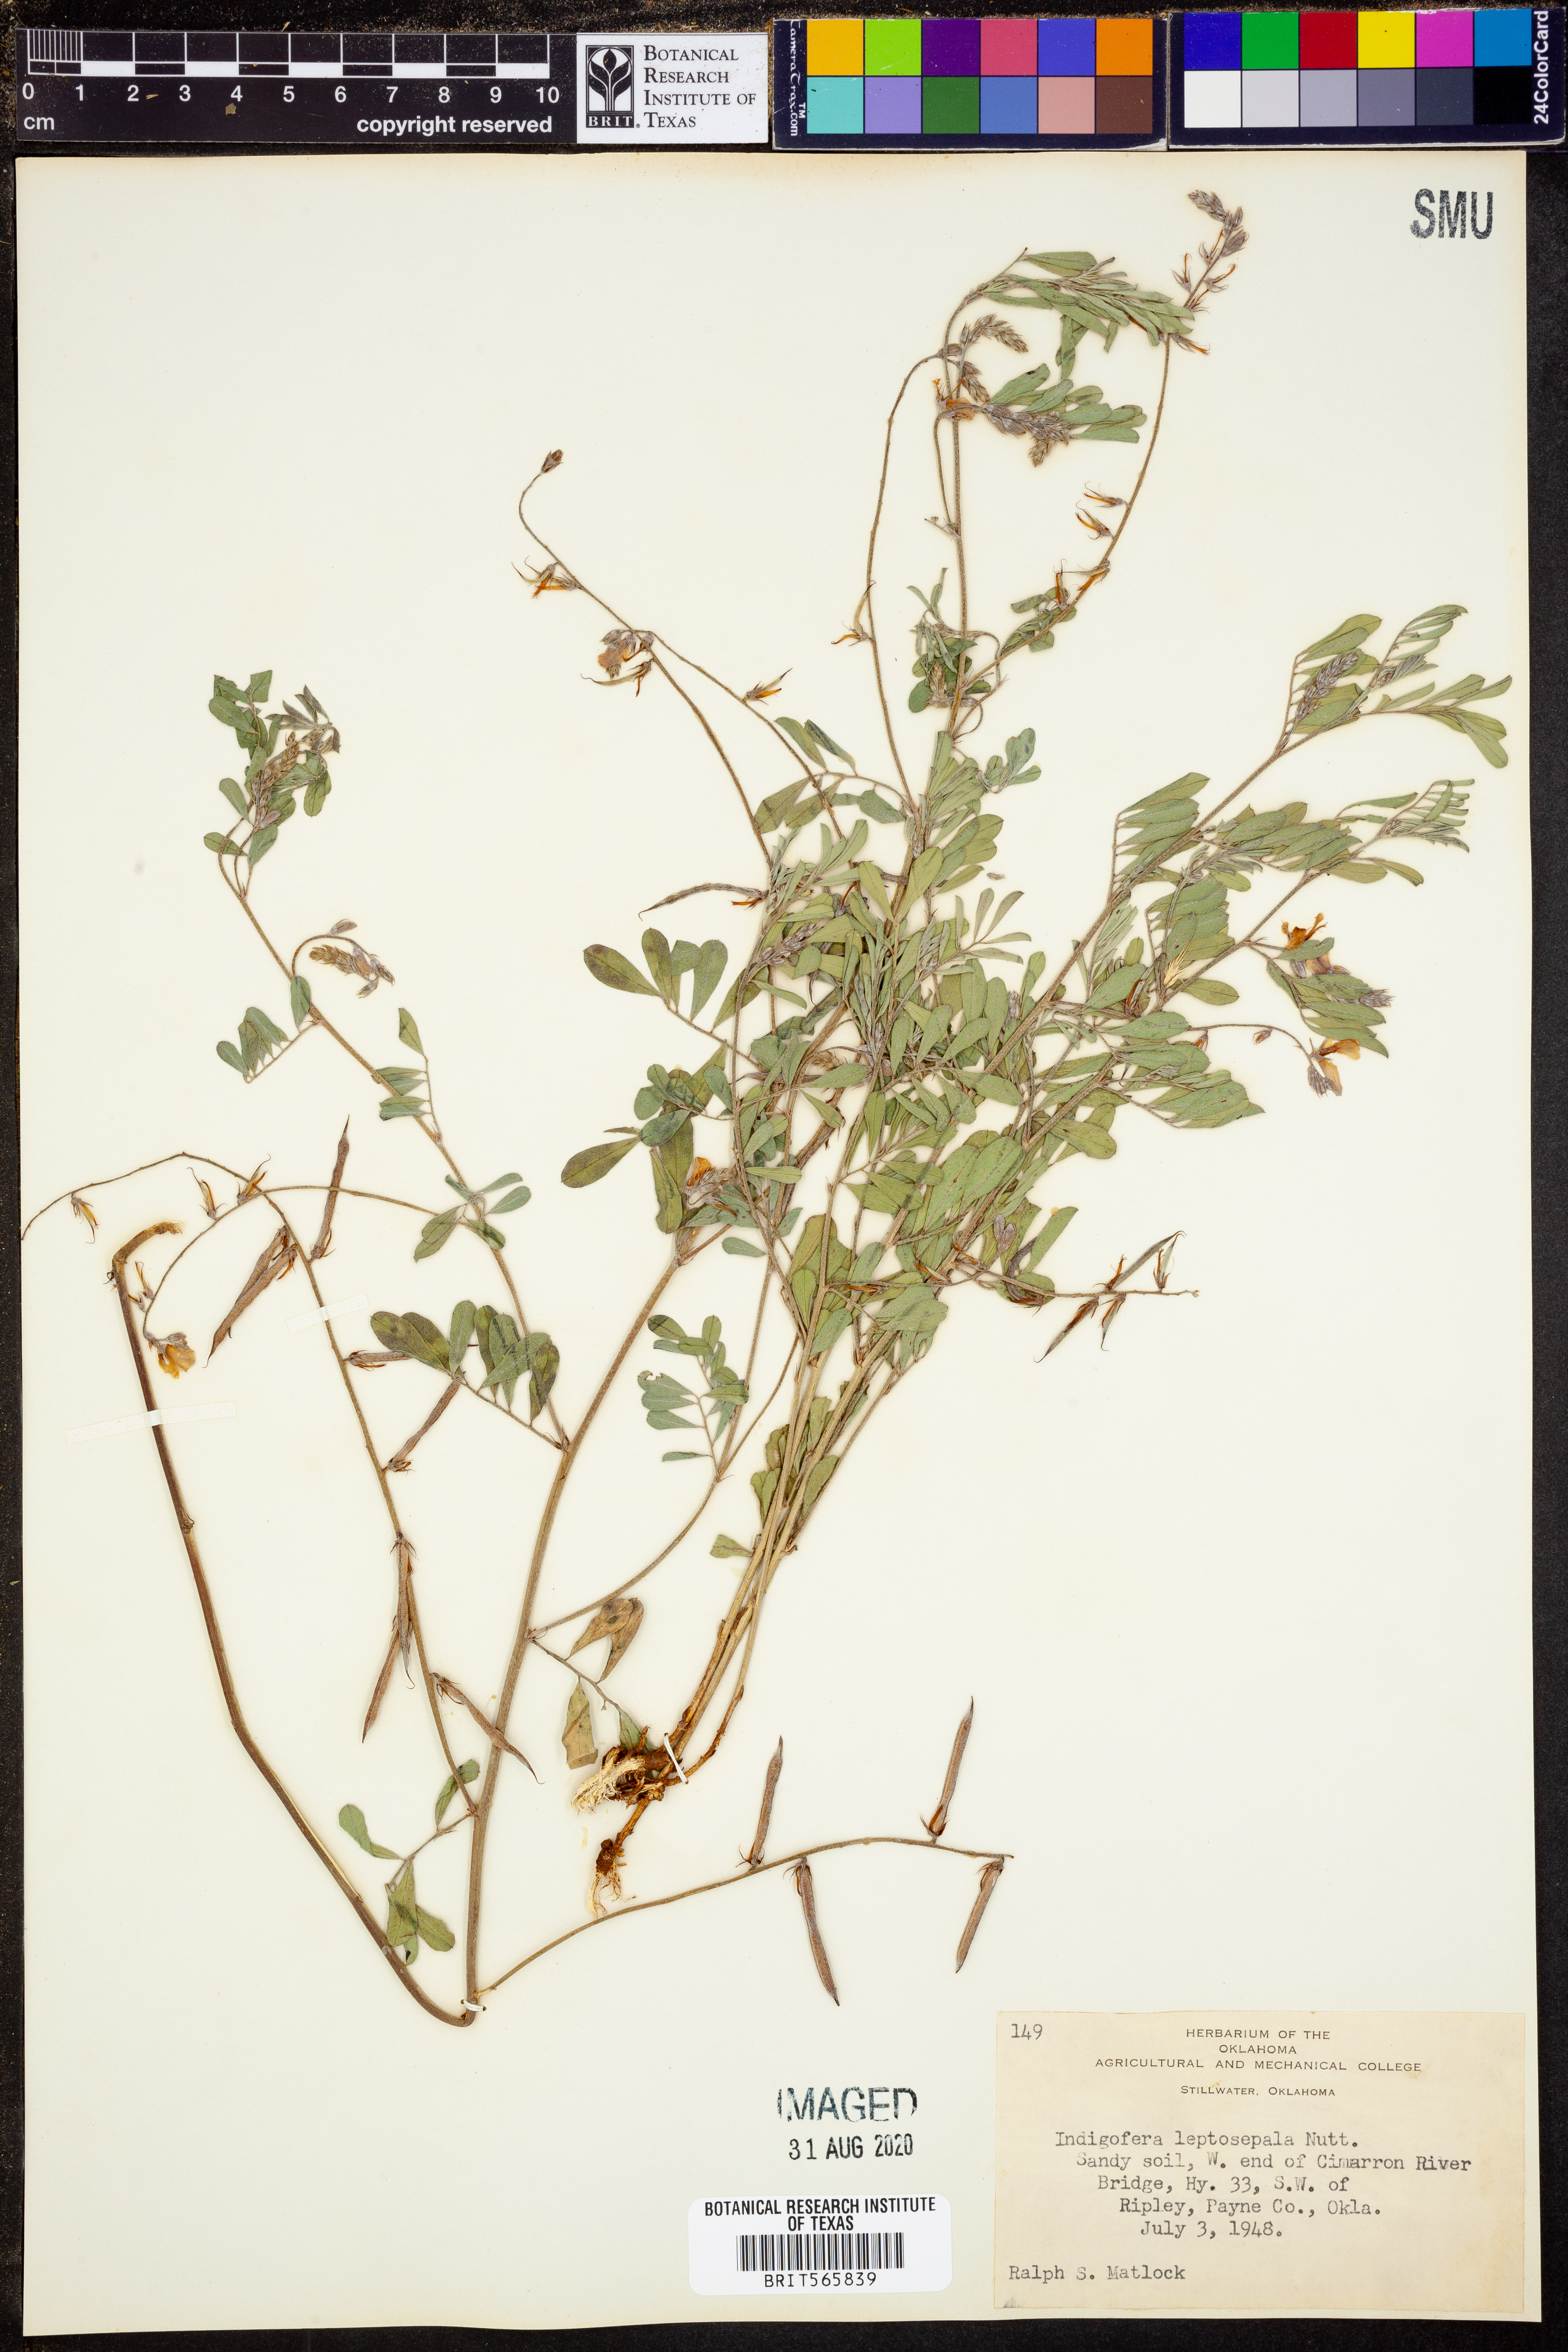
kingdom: Plantae
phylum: Tracheophyta
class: Magnoliopsida
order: Fabales
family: Fabaceae
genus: Indigofera
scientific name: Indigofera argutidens
